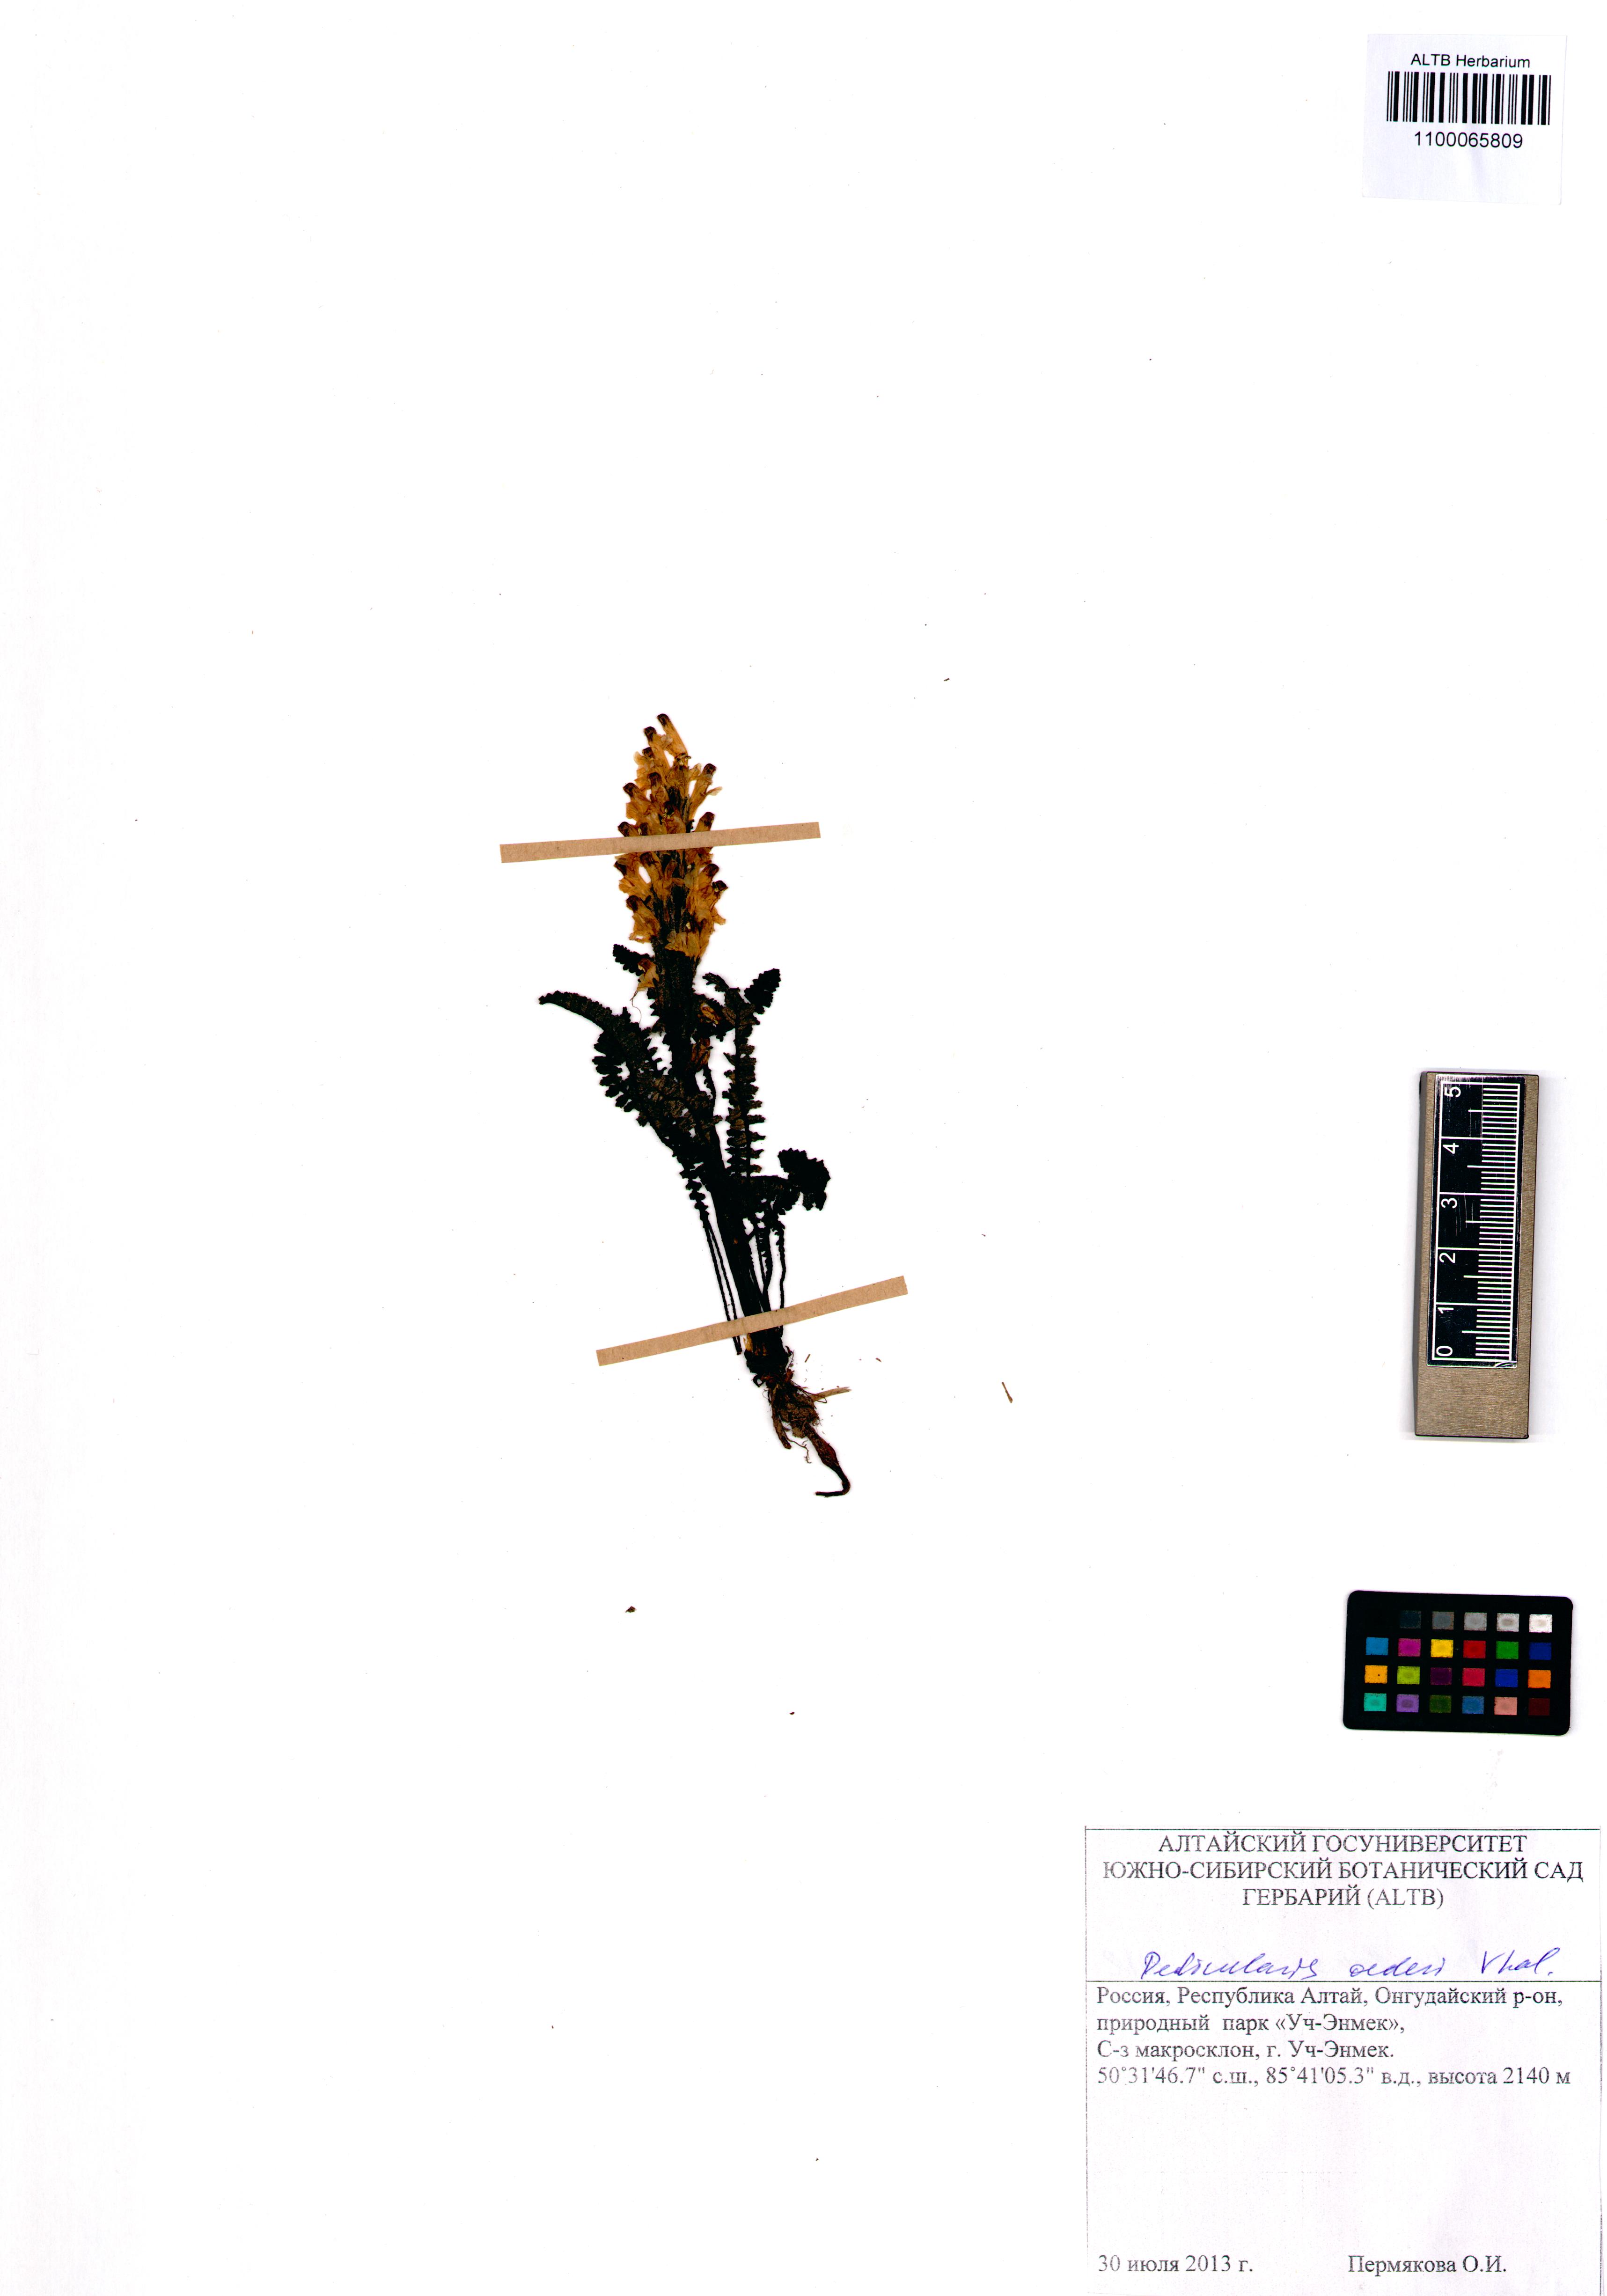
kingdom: Plantae
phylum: Tracheophyta
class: Magnoliopsida
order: Lamiales
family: Orobanchaceae
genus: Pedicularis
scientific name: Pedicularis oederi
